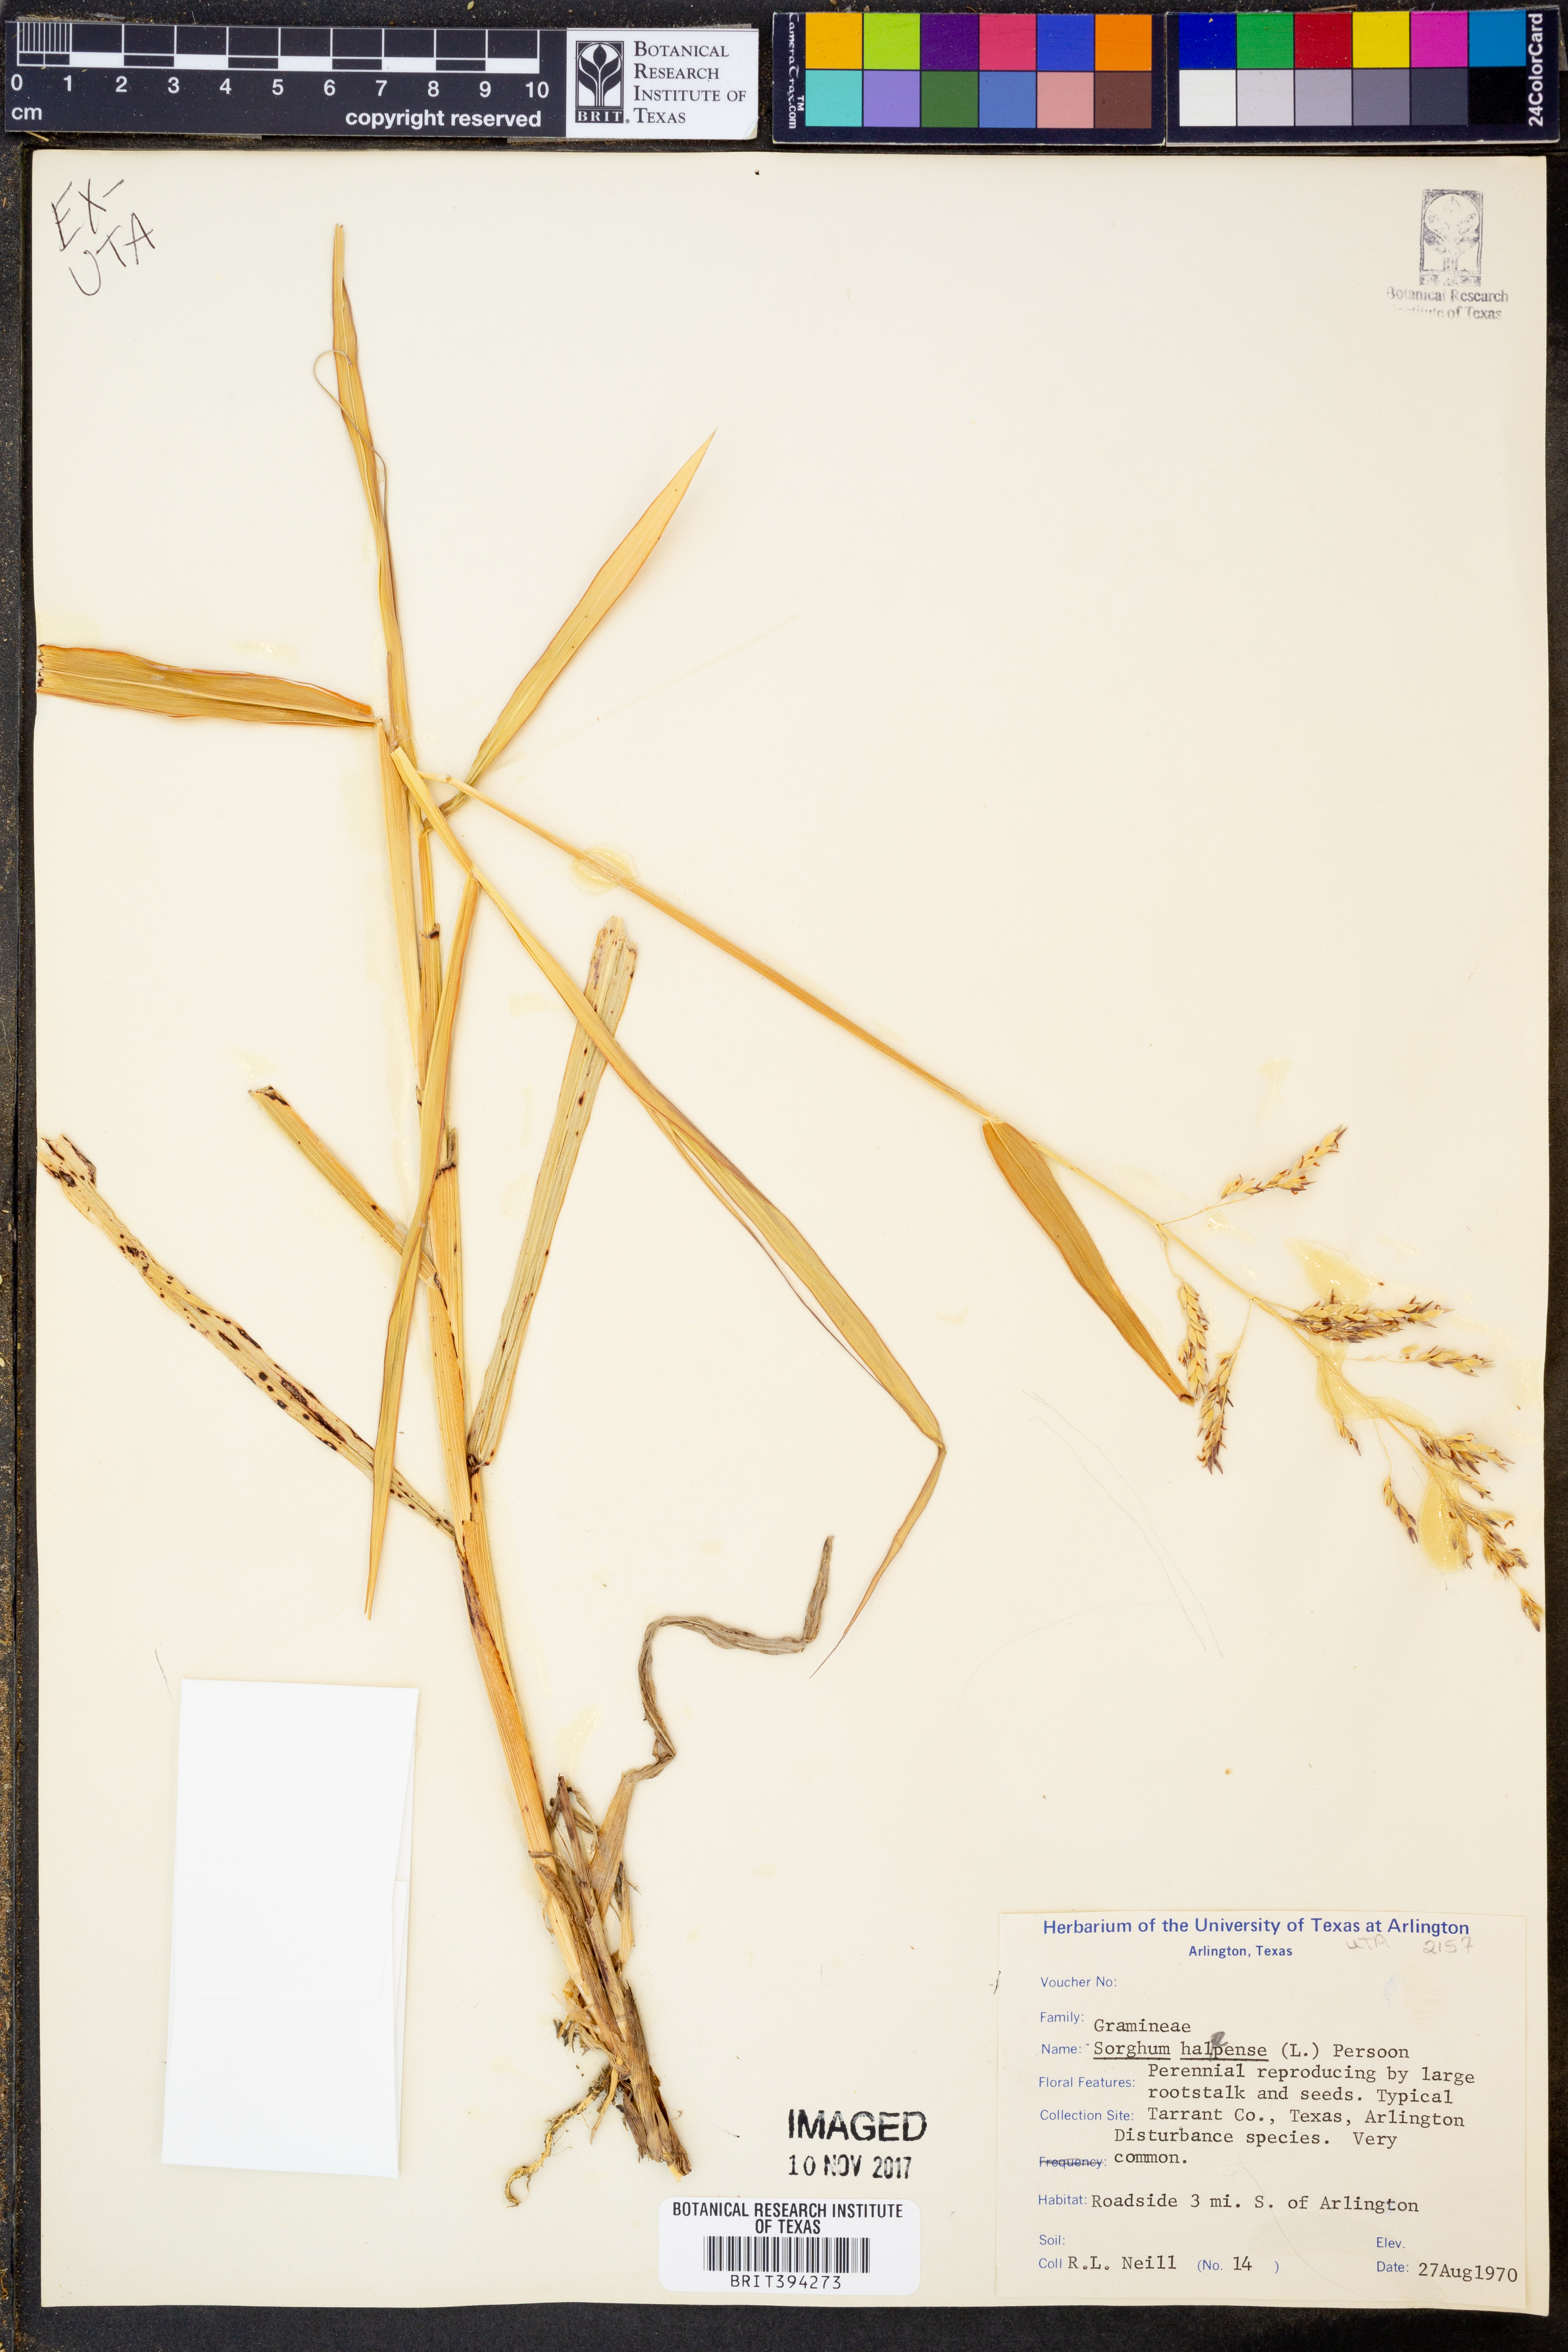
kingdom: Plantae
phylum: Tracheophyta
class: Liliopsida
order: Poales
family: Poaceae
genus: Sorghum
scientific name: Sorghum halepense
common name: Johnson-grass
